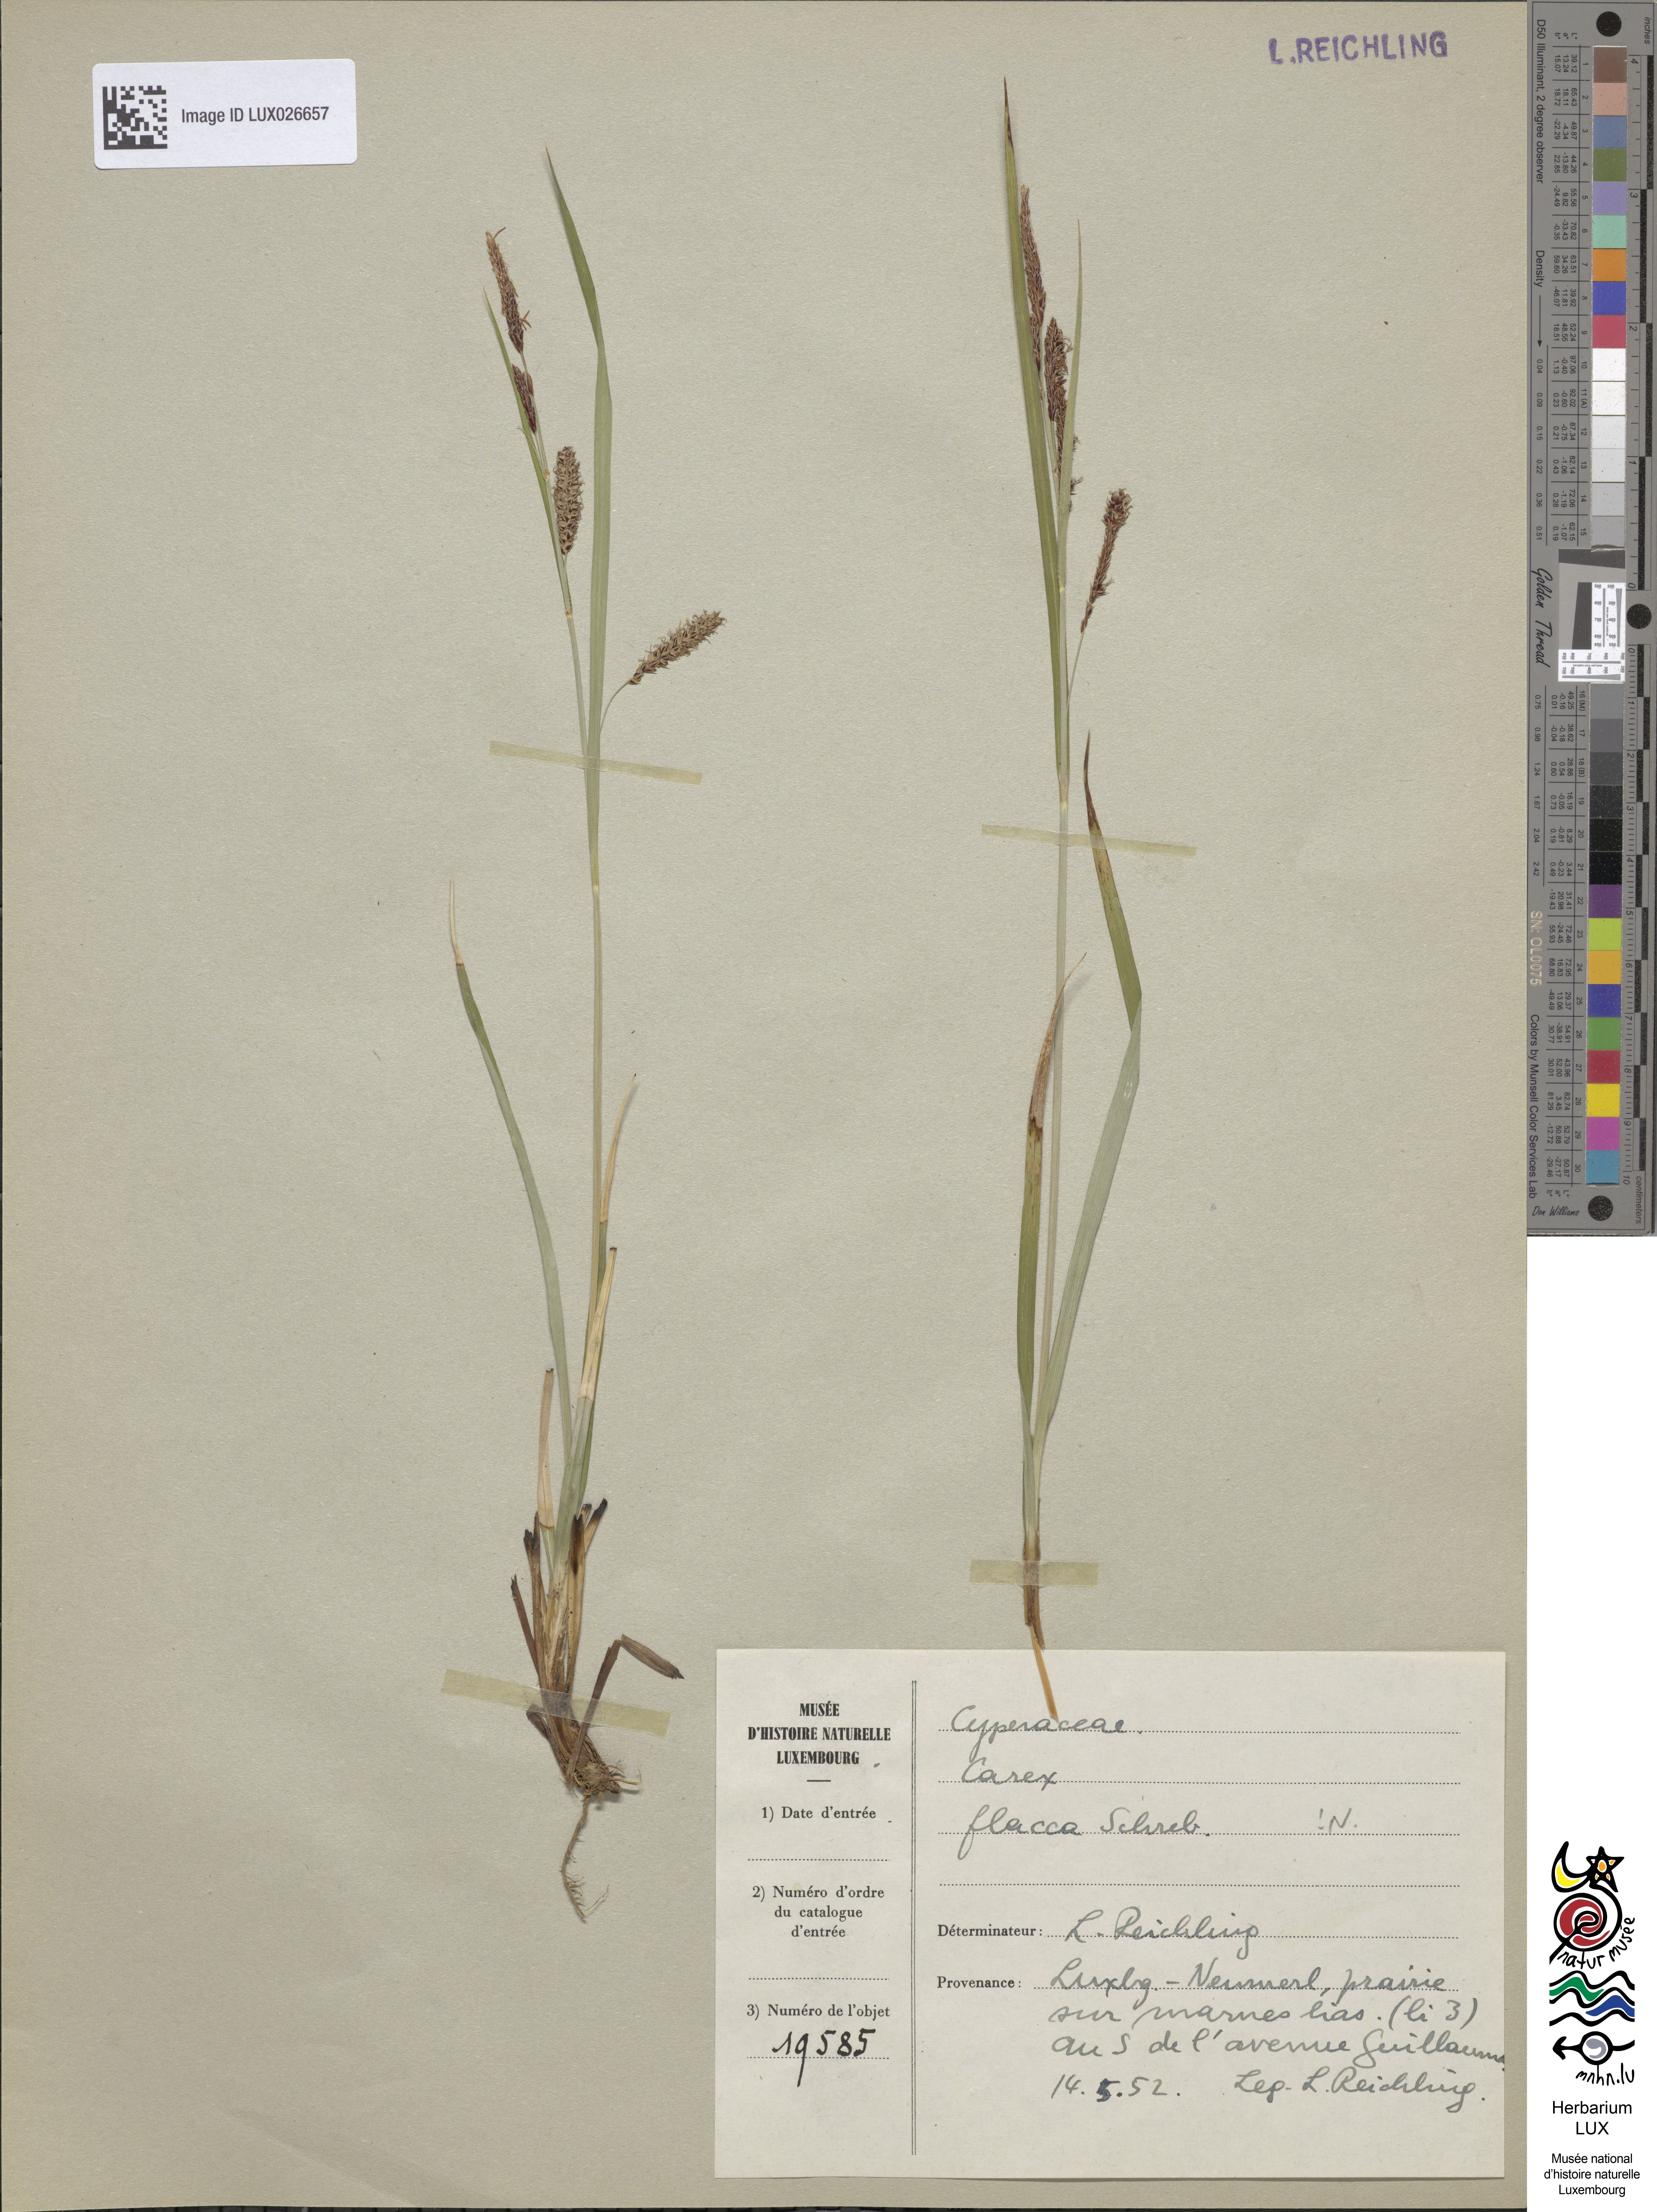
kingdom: Plantae
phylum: Tracheophyta
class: Liliopsida
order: Poales
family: Cyperaceae
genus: Carex
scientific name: Carex flacca
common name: Glaucous sedge
